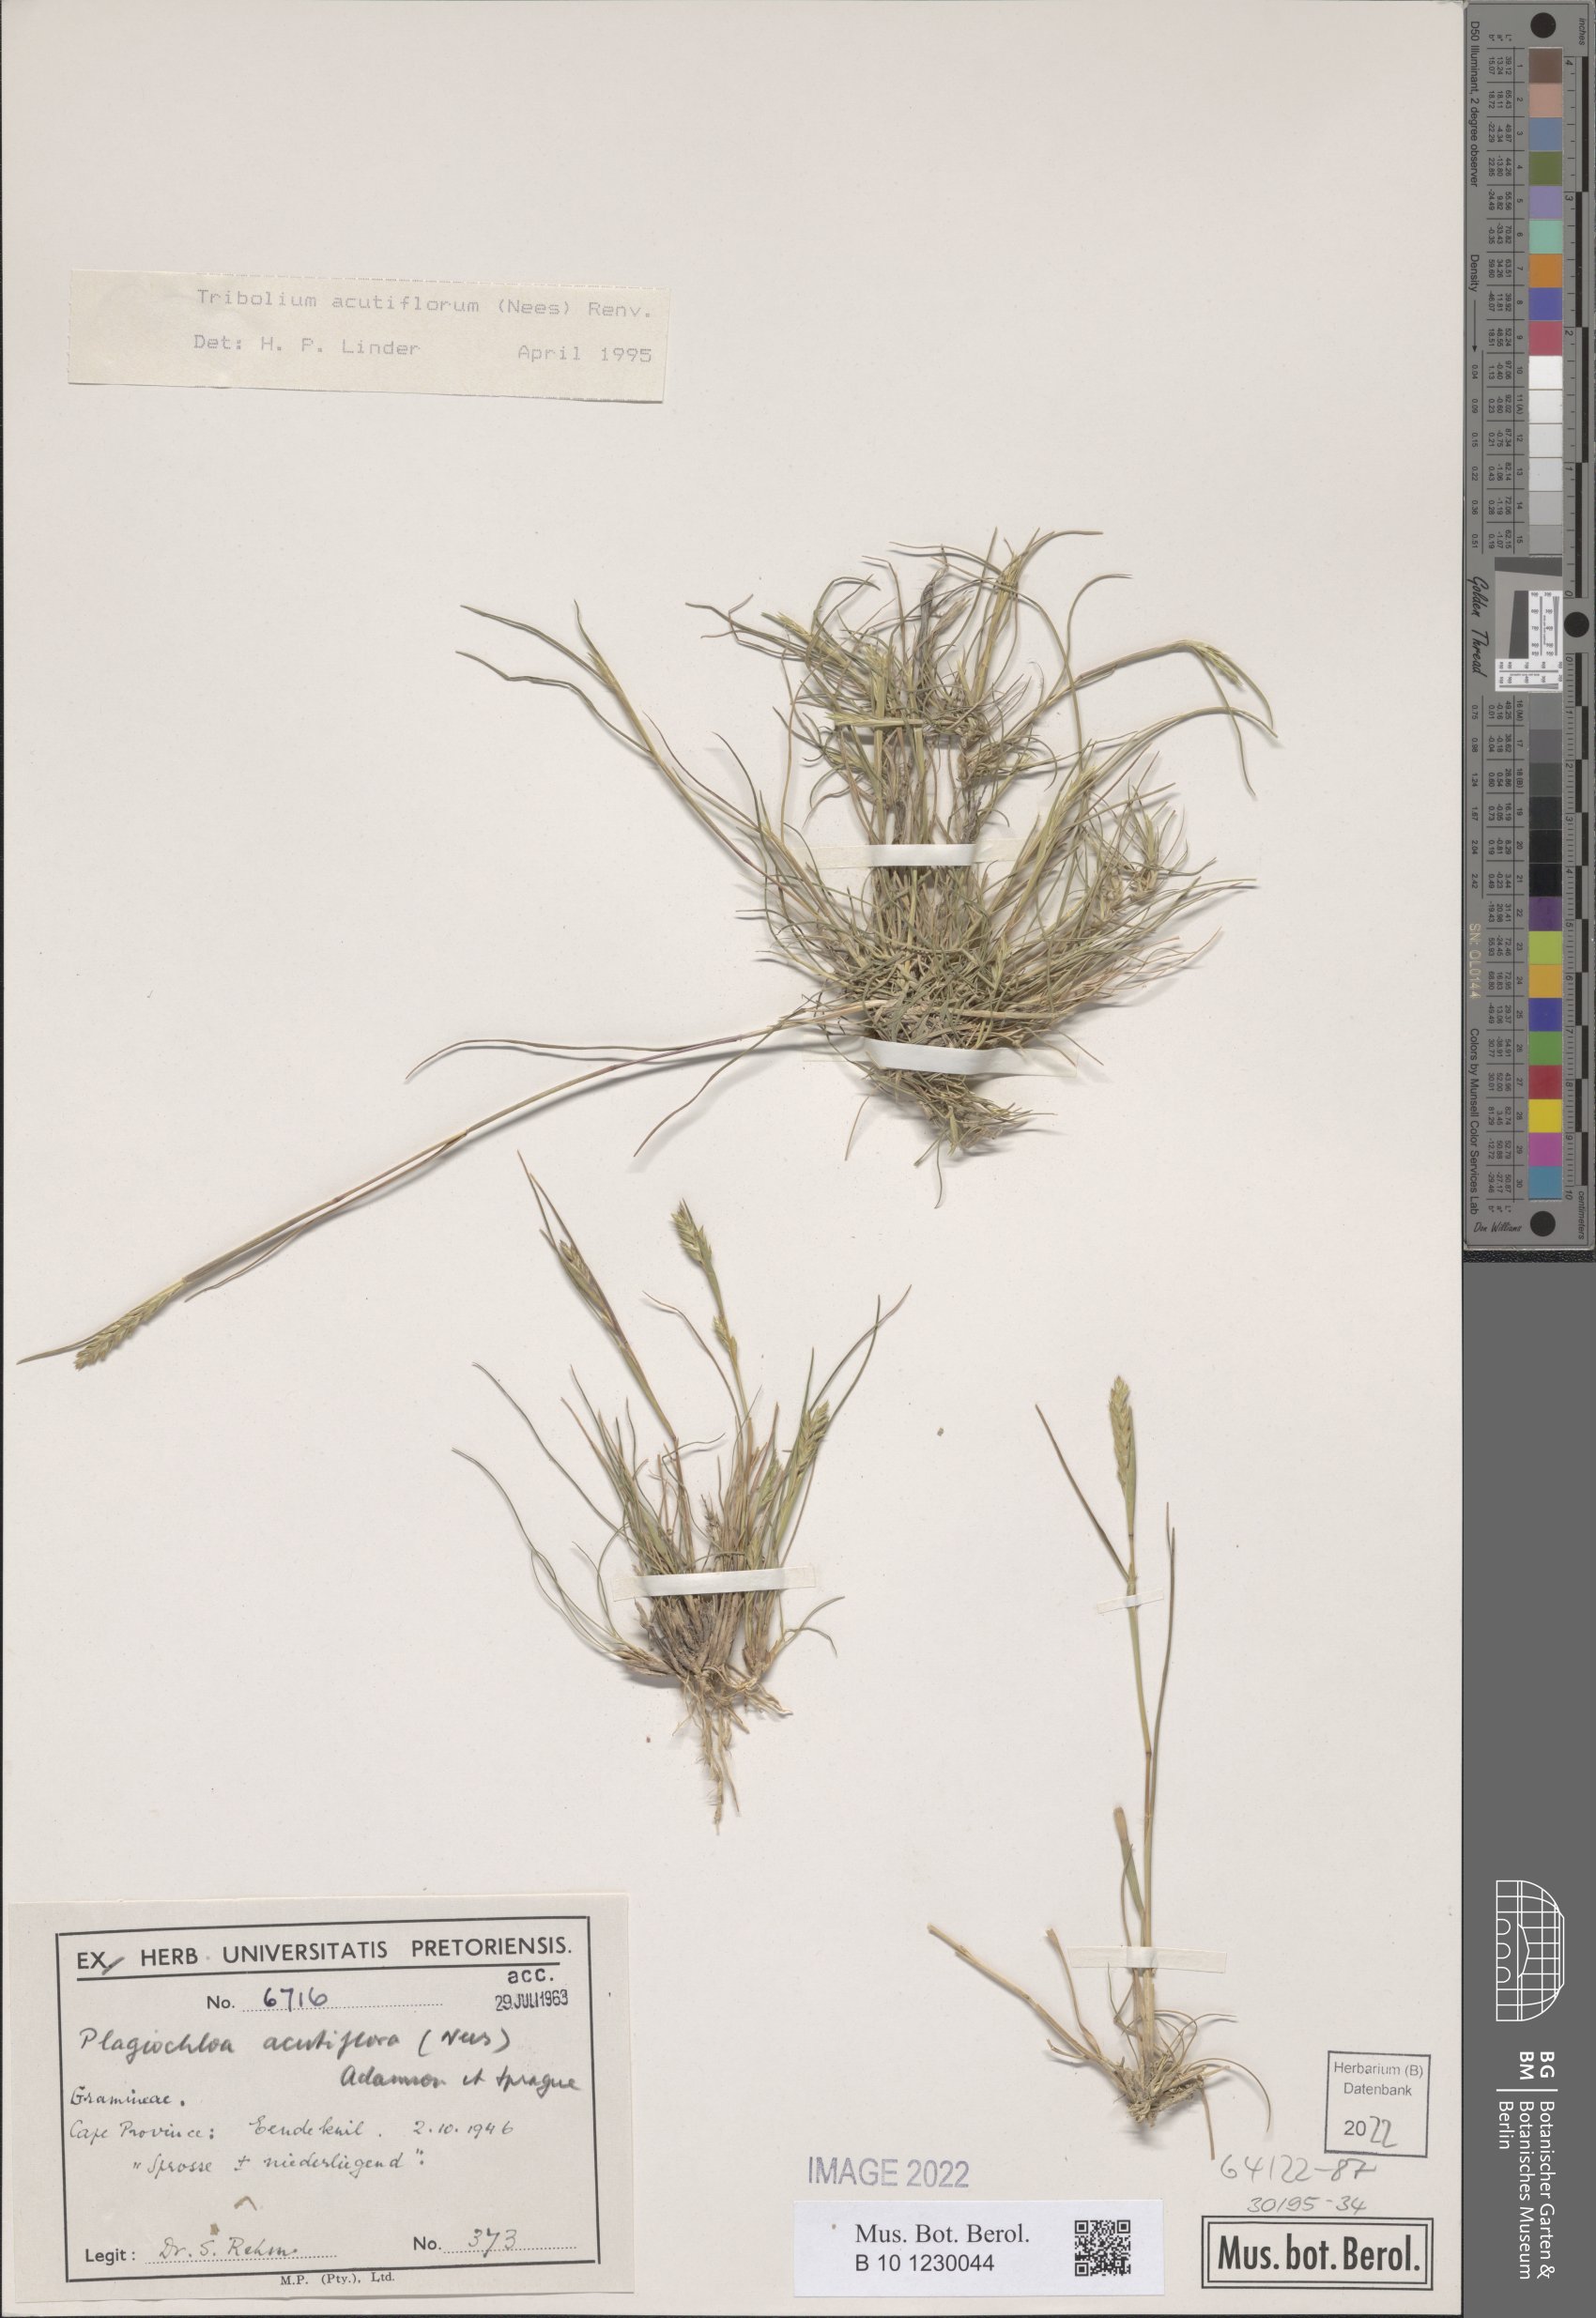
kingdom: Plantae
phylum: Tracheophyta
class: Liliopsida
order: Poales
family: Poaceae
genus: Tribolium
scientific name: Tribolium acutiflorum
